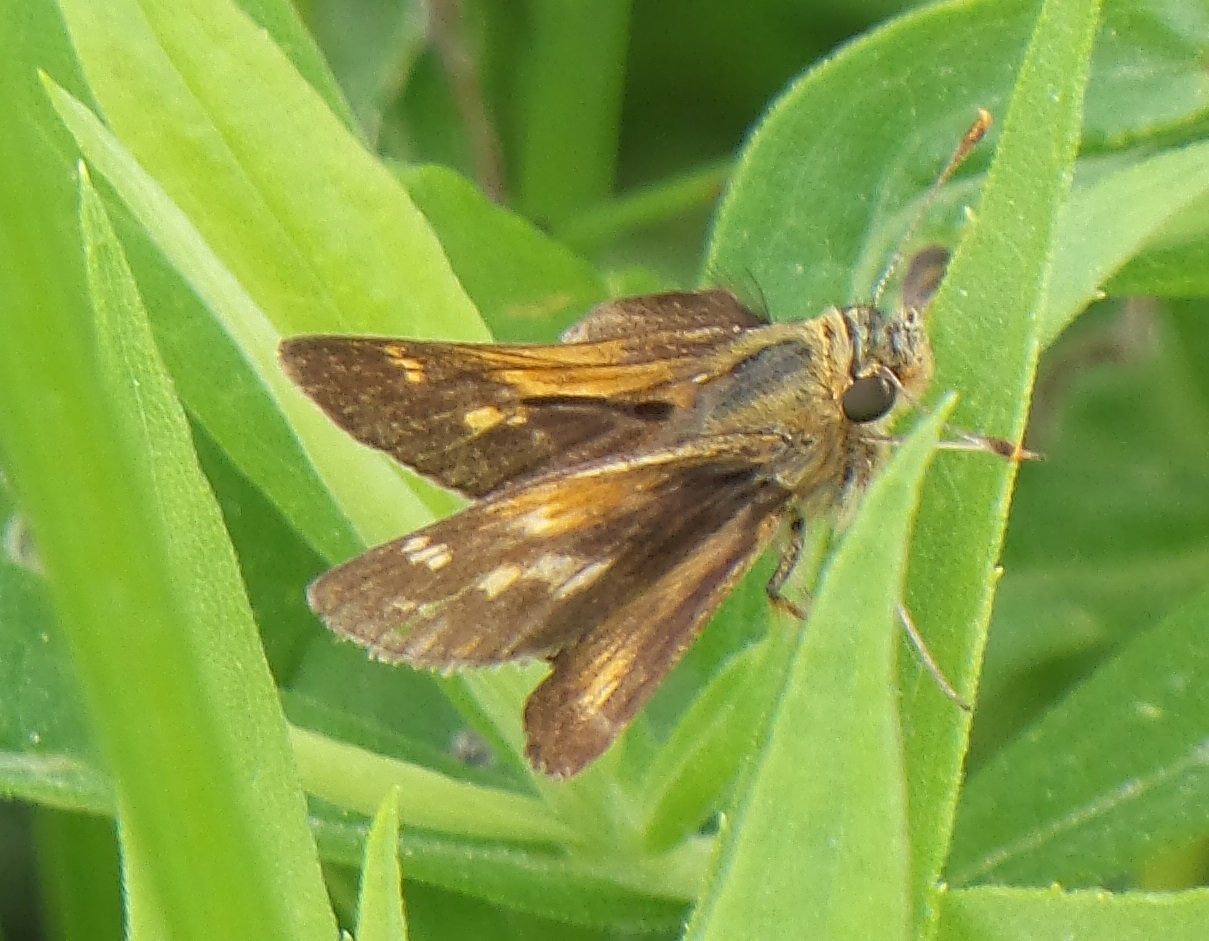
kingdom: Animalia
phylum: Arthropoda
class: Insecta
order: Lepidoptera
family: Hesperiidae
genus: Polites
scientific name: Polites coras
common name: Peck's Skipper
